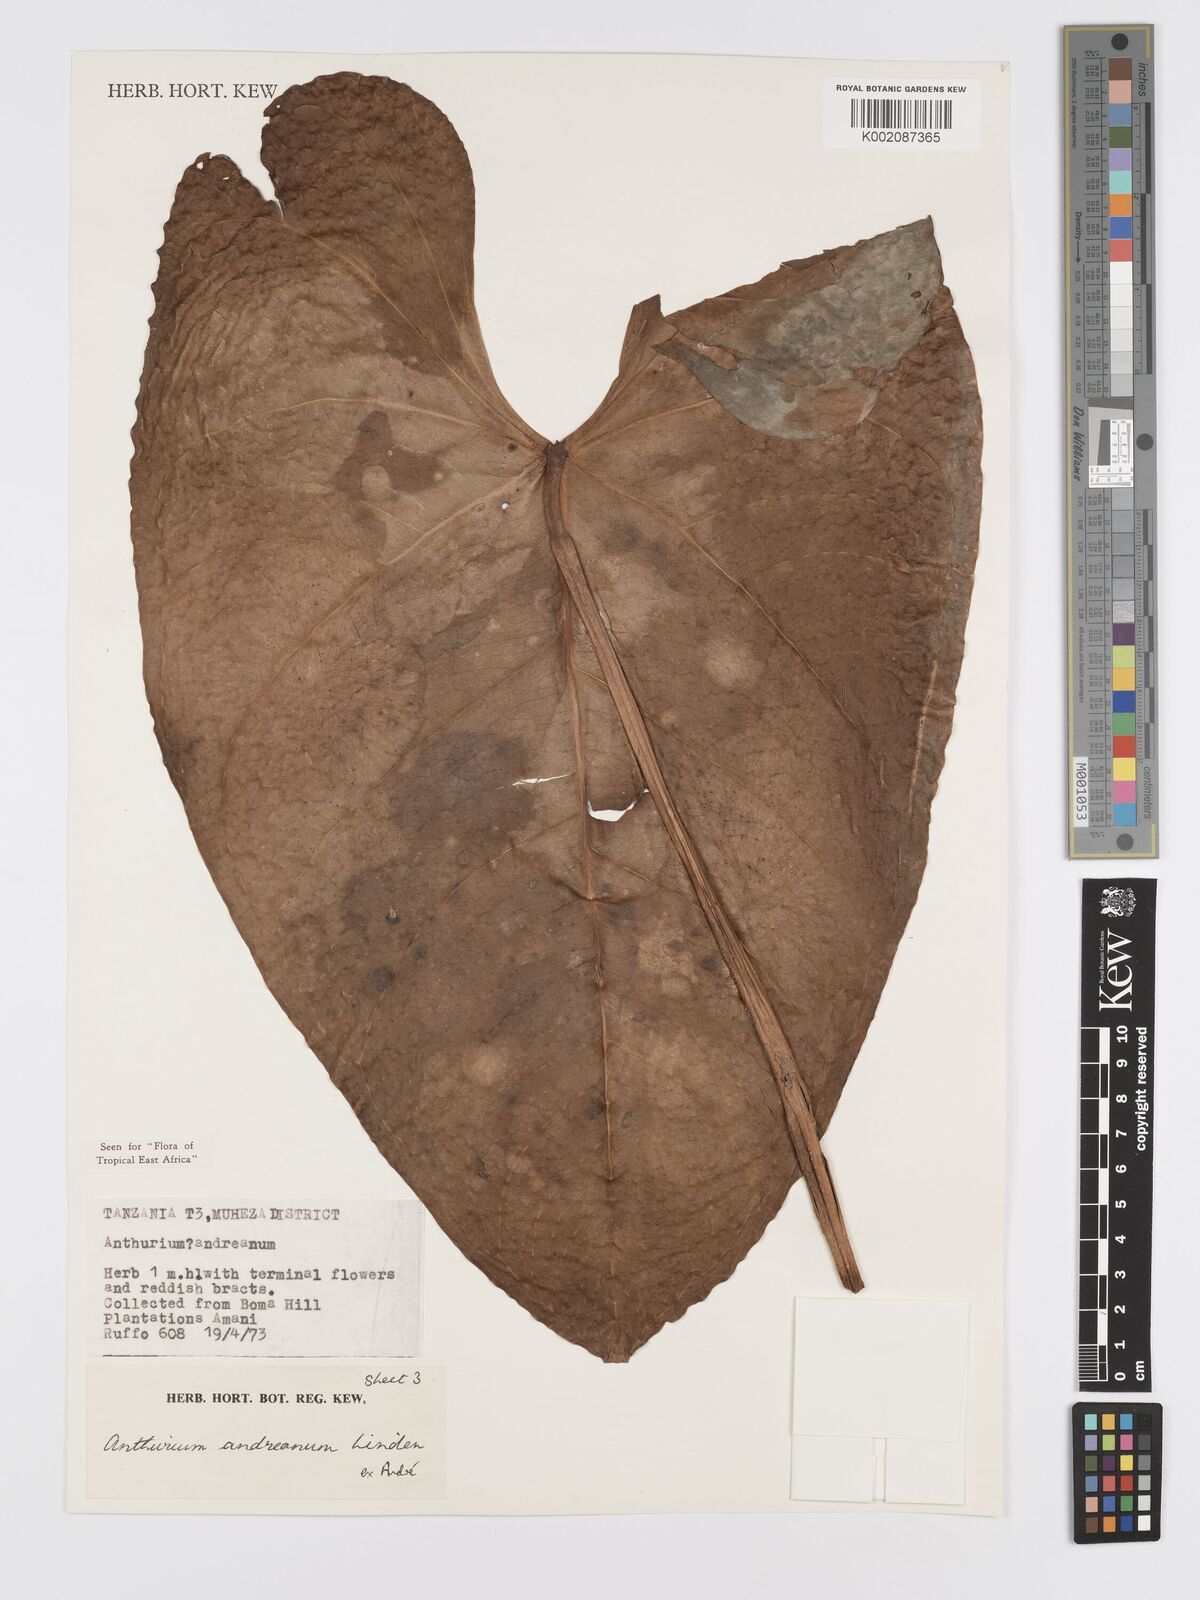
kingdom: Plantae
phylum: Tracheophyta
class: Liliopsida
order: Alismatales
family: Araceae
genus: Anthurium
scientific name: Anthurium andraeanum
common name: Flamingo-flower
